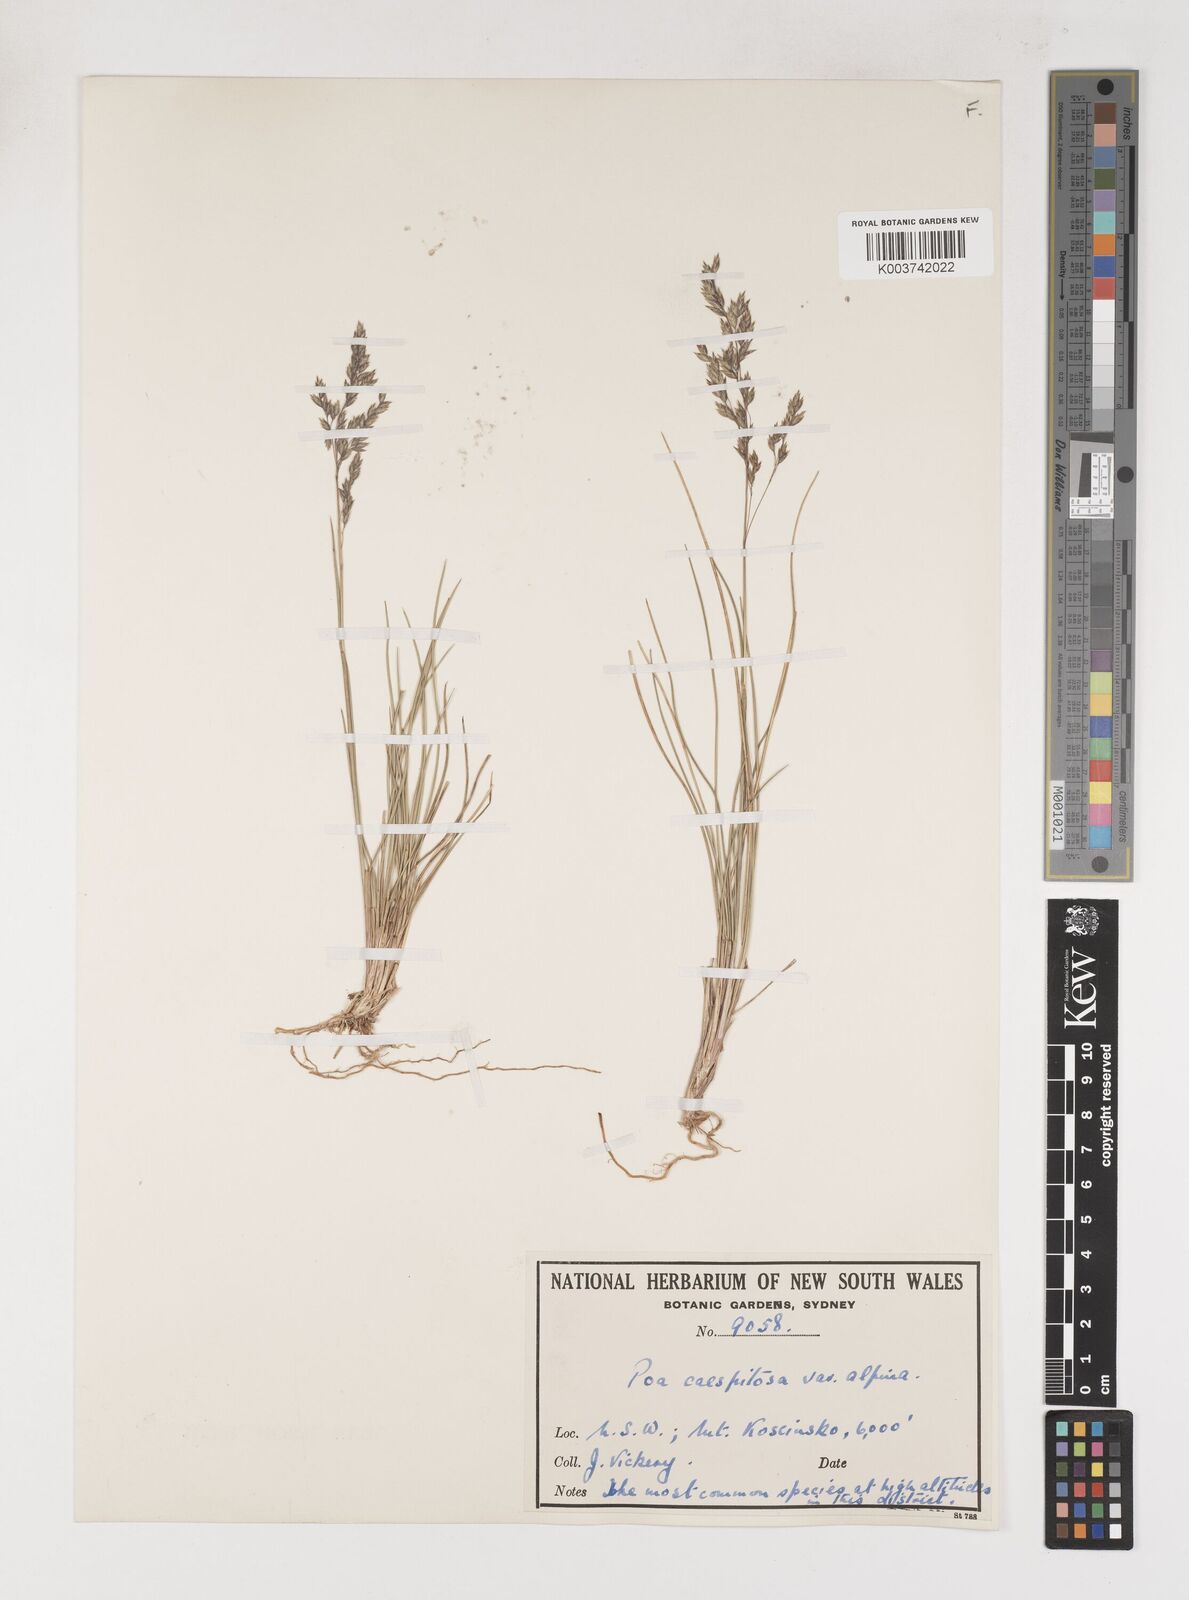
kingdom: Plantae
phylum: Tracheophyta
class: Liliopsida
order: Poales
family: Poaceae
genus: Poa
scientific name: Poa gunnii
